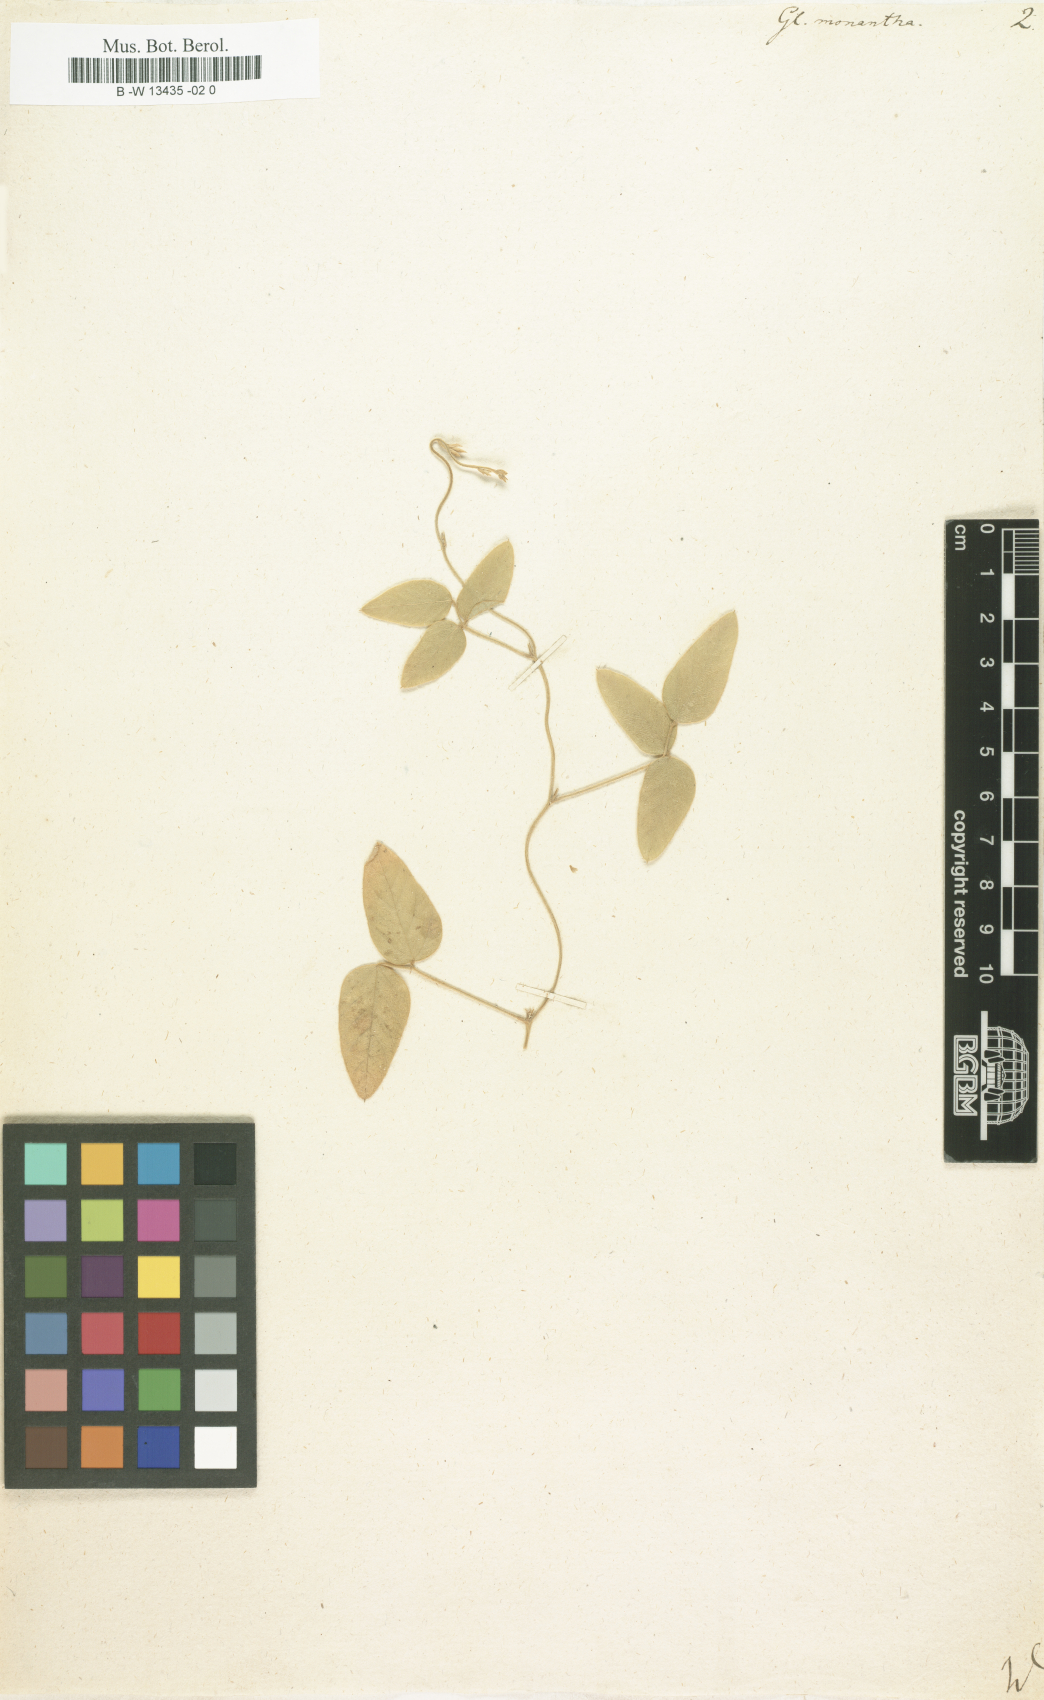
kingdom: Plantae
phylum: Tracheophyta
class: Magnoliopsida
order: Fabales
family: Fabaceae
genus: Glycine
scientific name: Glycine monantha
